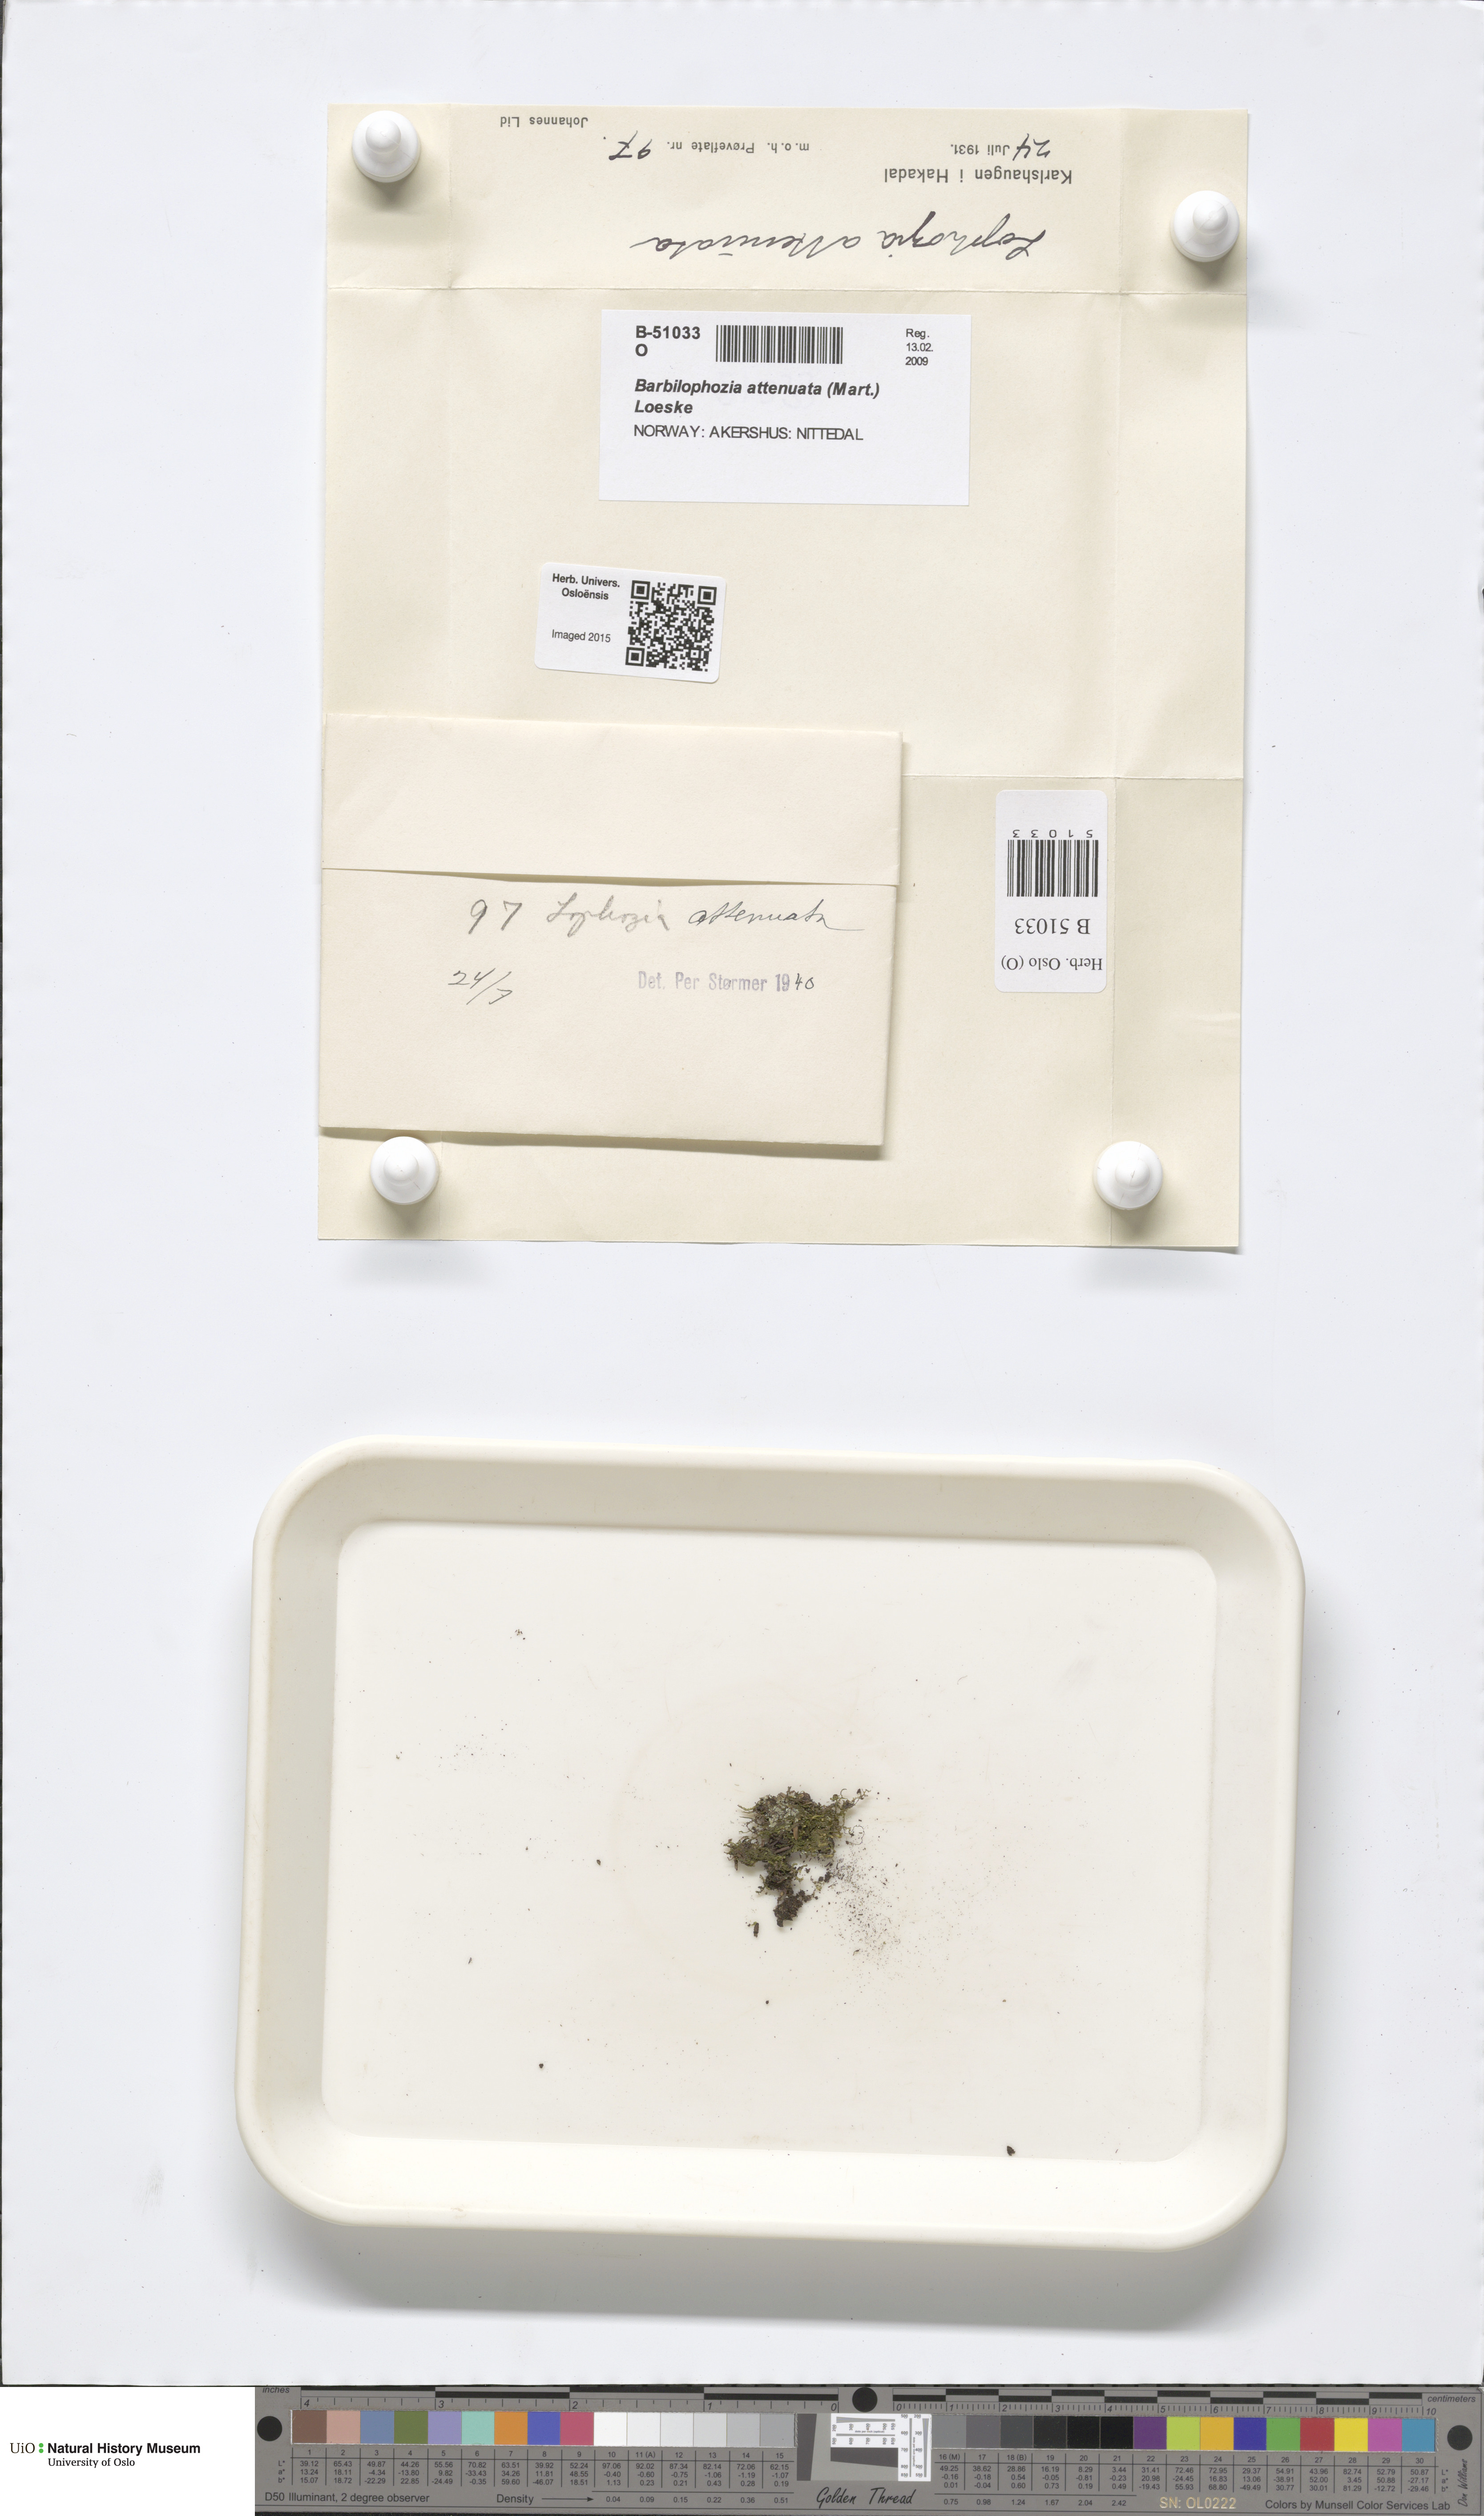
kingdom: Plantae
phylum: Marchantiophyta
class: Jungermanniopsida
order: Jungermanniales
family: Anastrophyllaceae
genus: Neoorthocaulis
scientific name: Neoorthocaulis attenuatus
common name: Trunk pawwort
